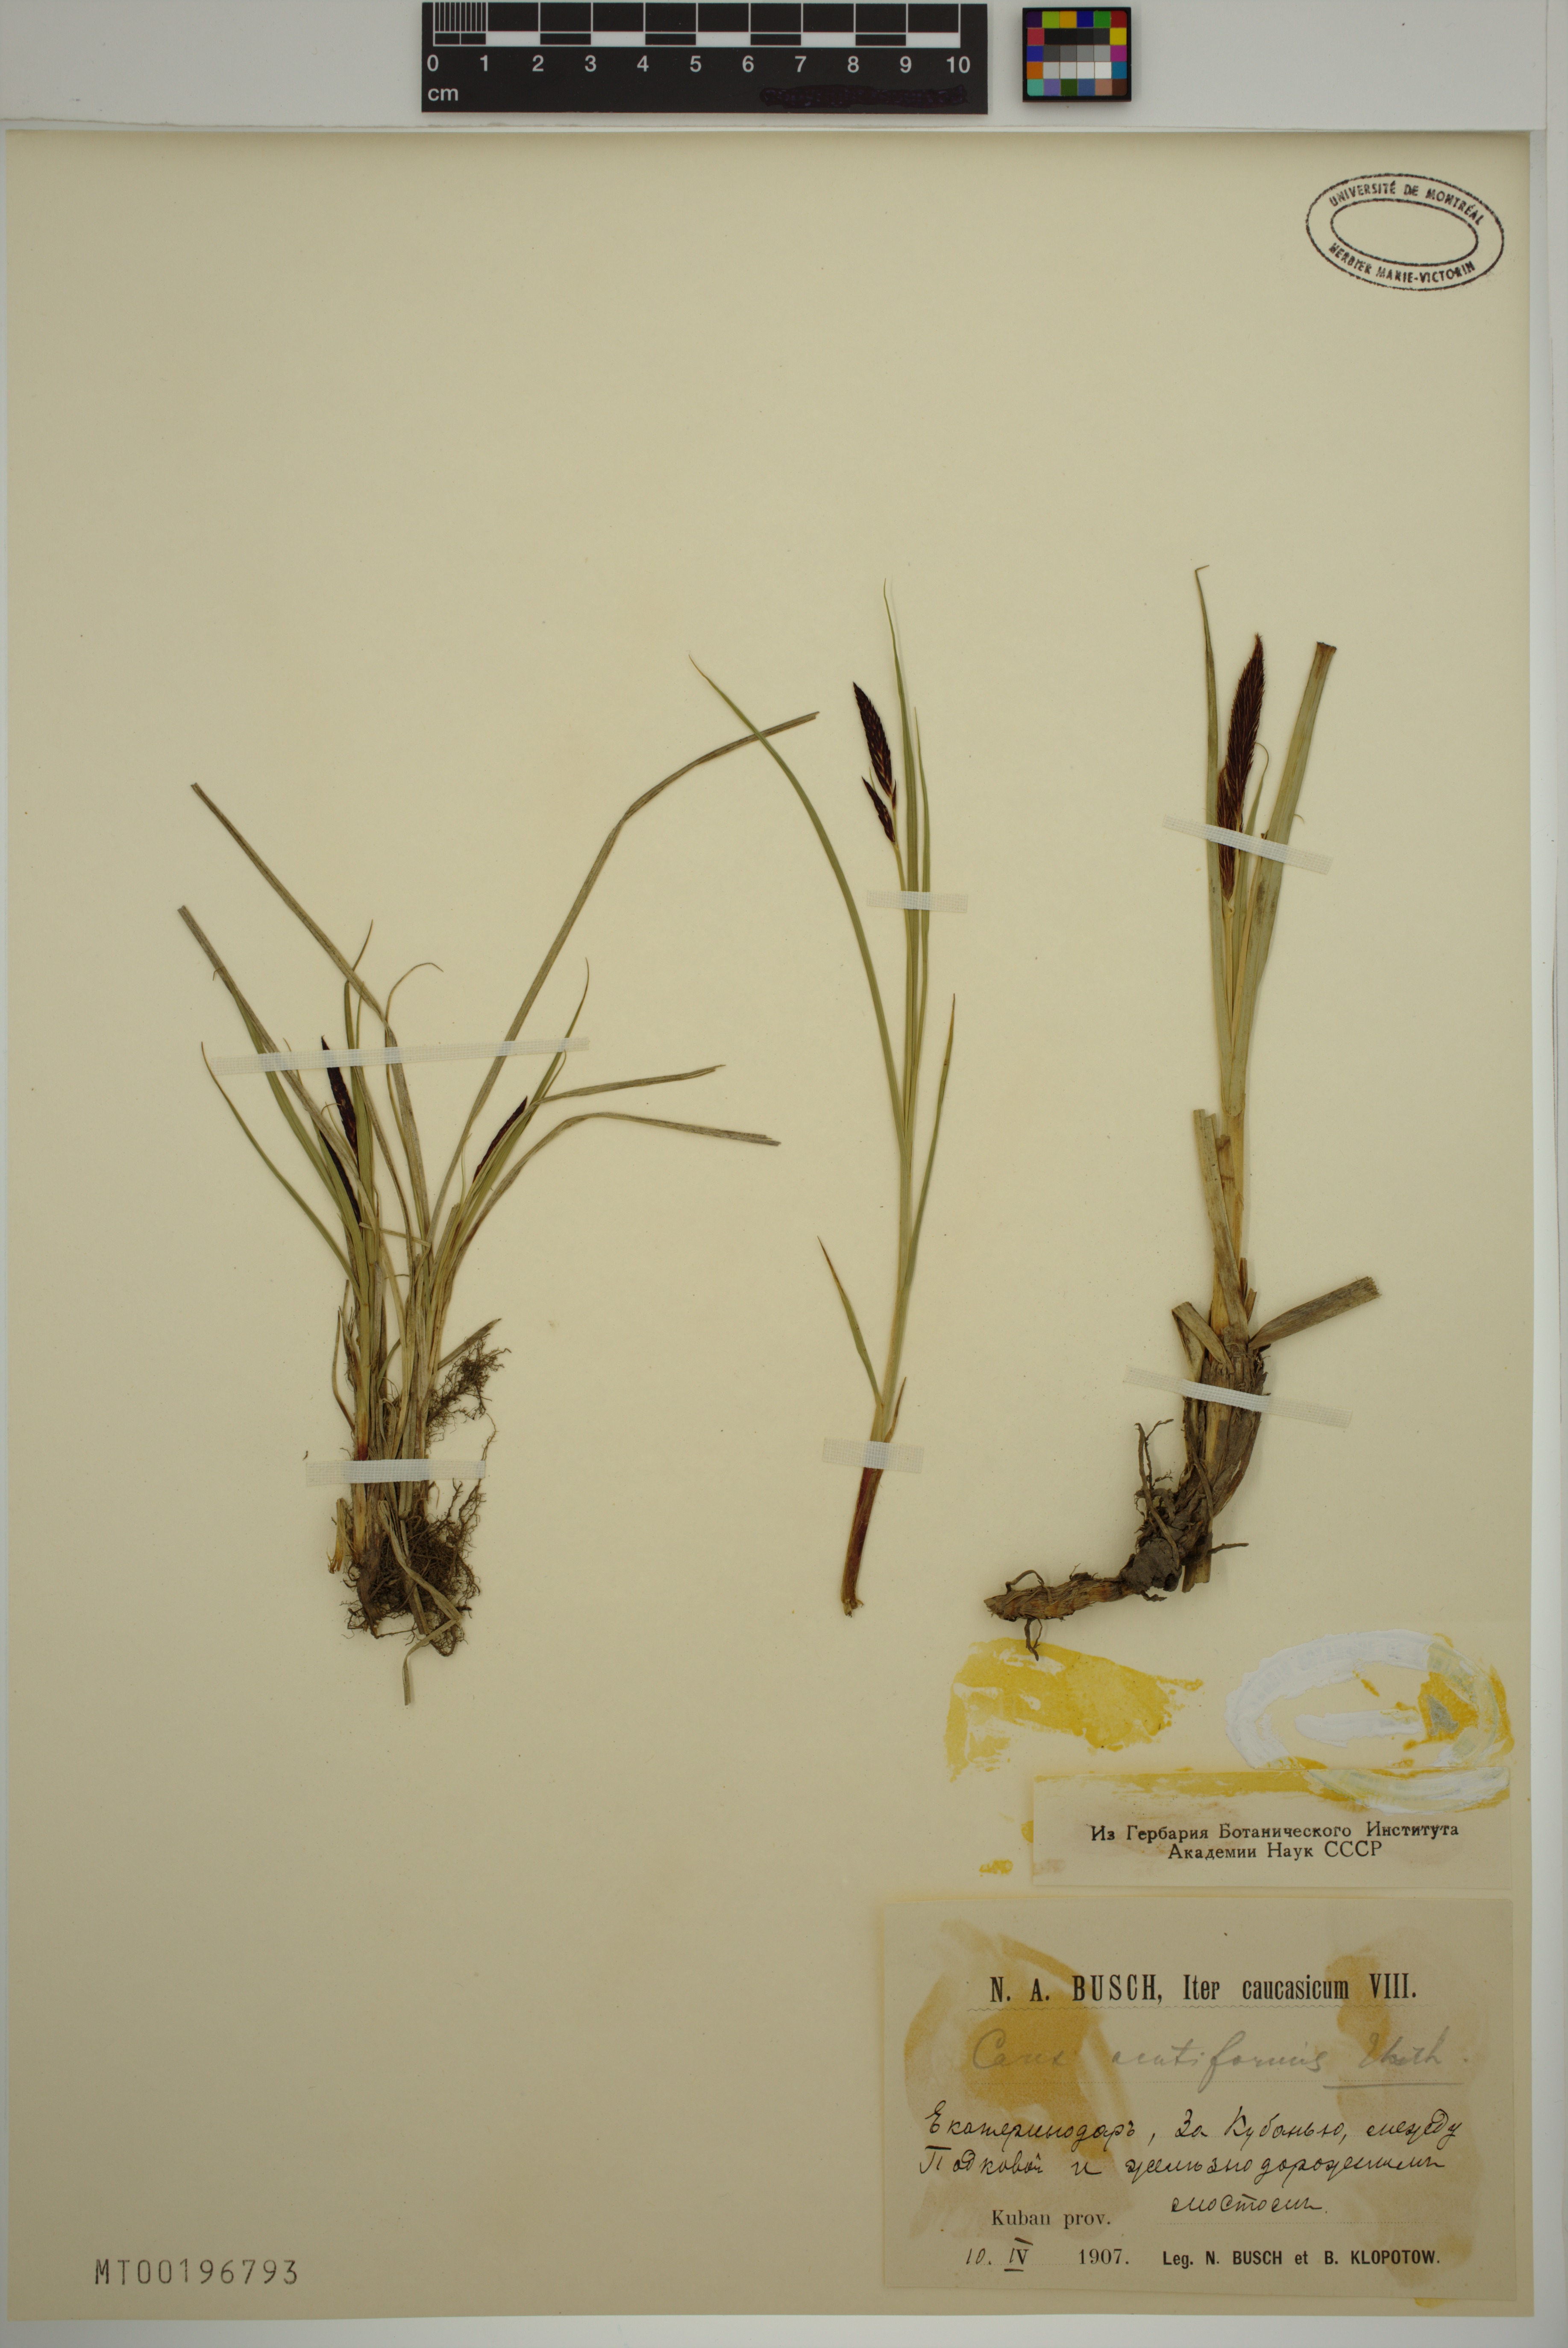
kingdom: Plantae
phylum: Tracheophyta
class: Liliopsida
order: Poales
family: Cyperaceae
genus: Carex
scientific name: Carex acutiformis
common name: Lesser pond-sedge
